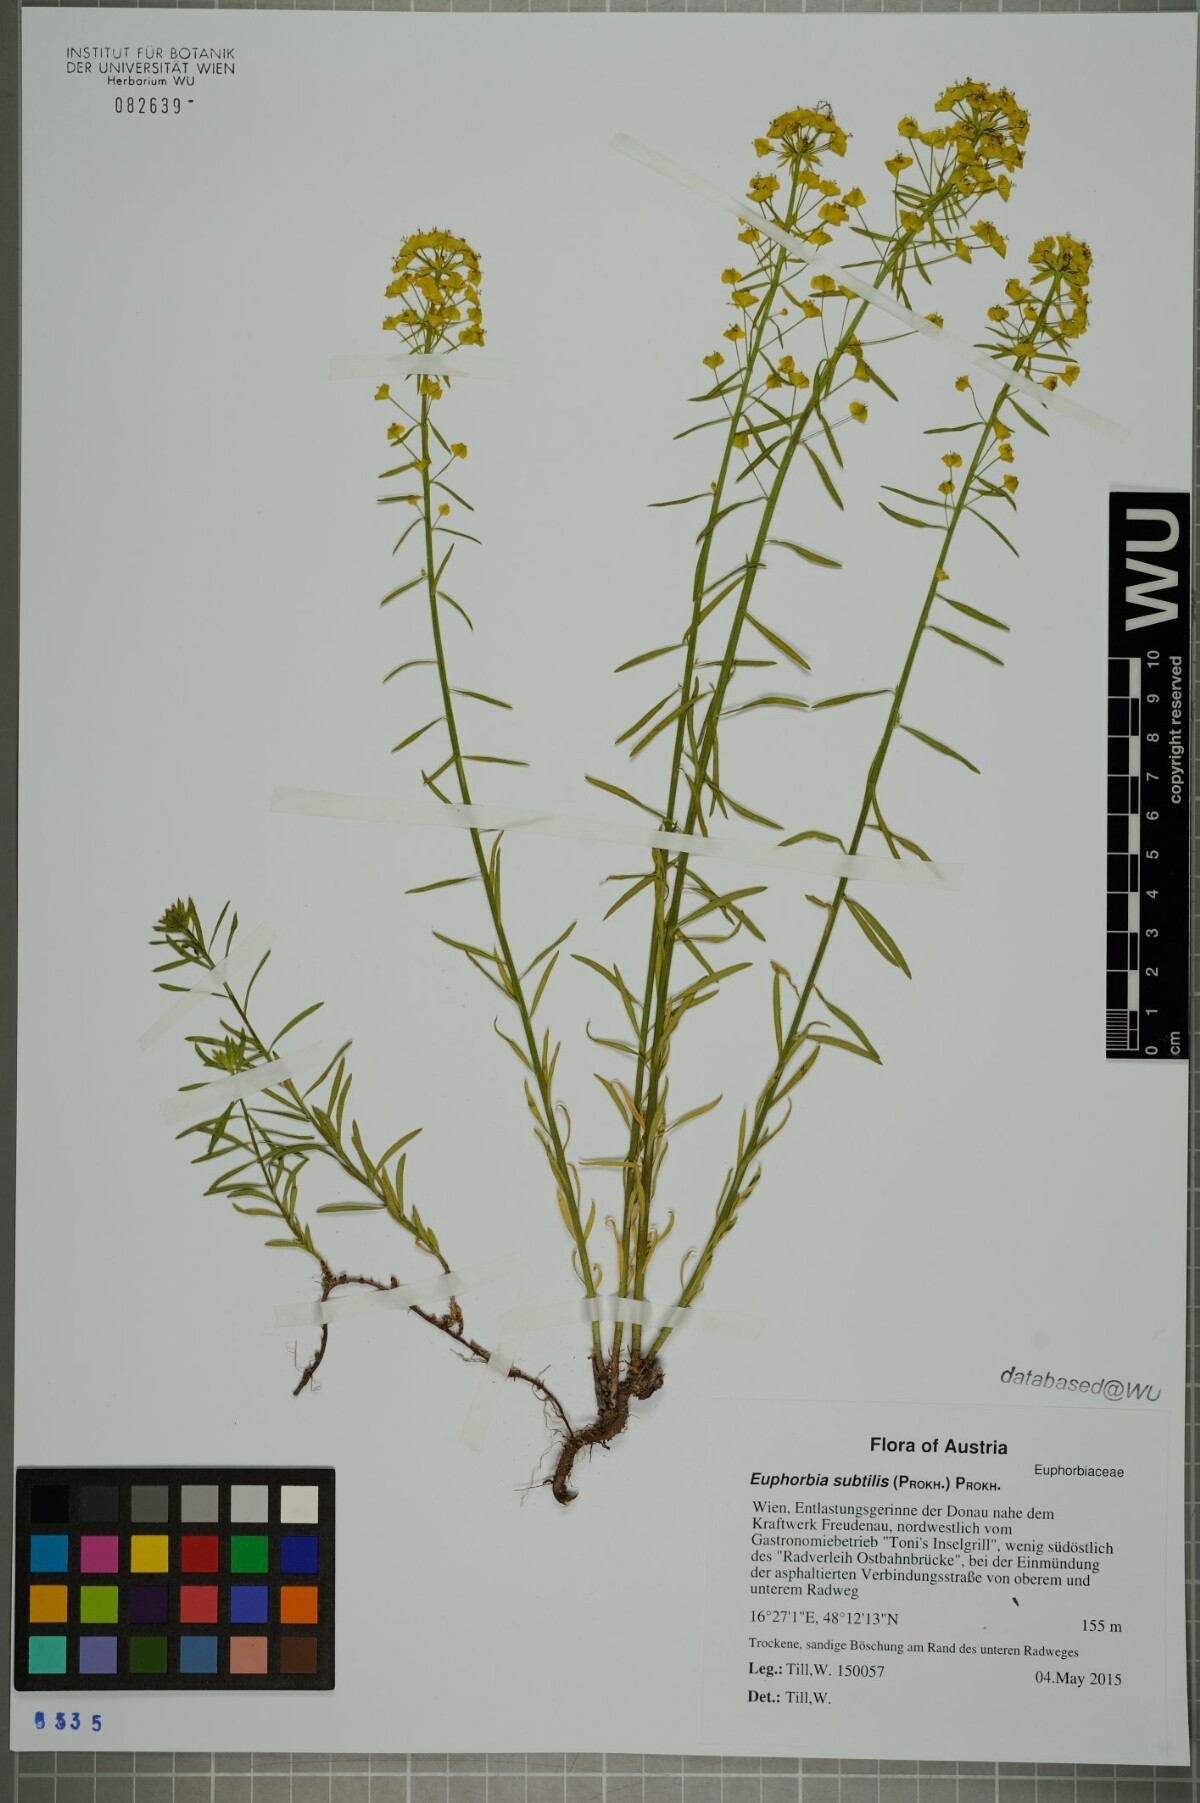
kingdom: Plantae
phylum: Tracheophyta
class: Magnoliopsida
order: Malpighiales
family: Euphorbiaceae
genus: Euphorbia
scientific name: Euphorbia esula
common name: Leafy spurge
